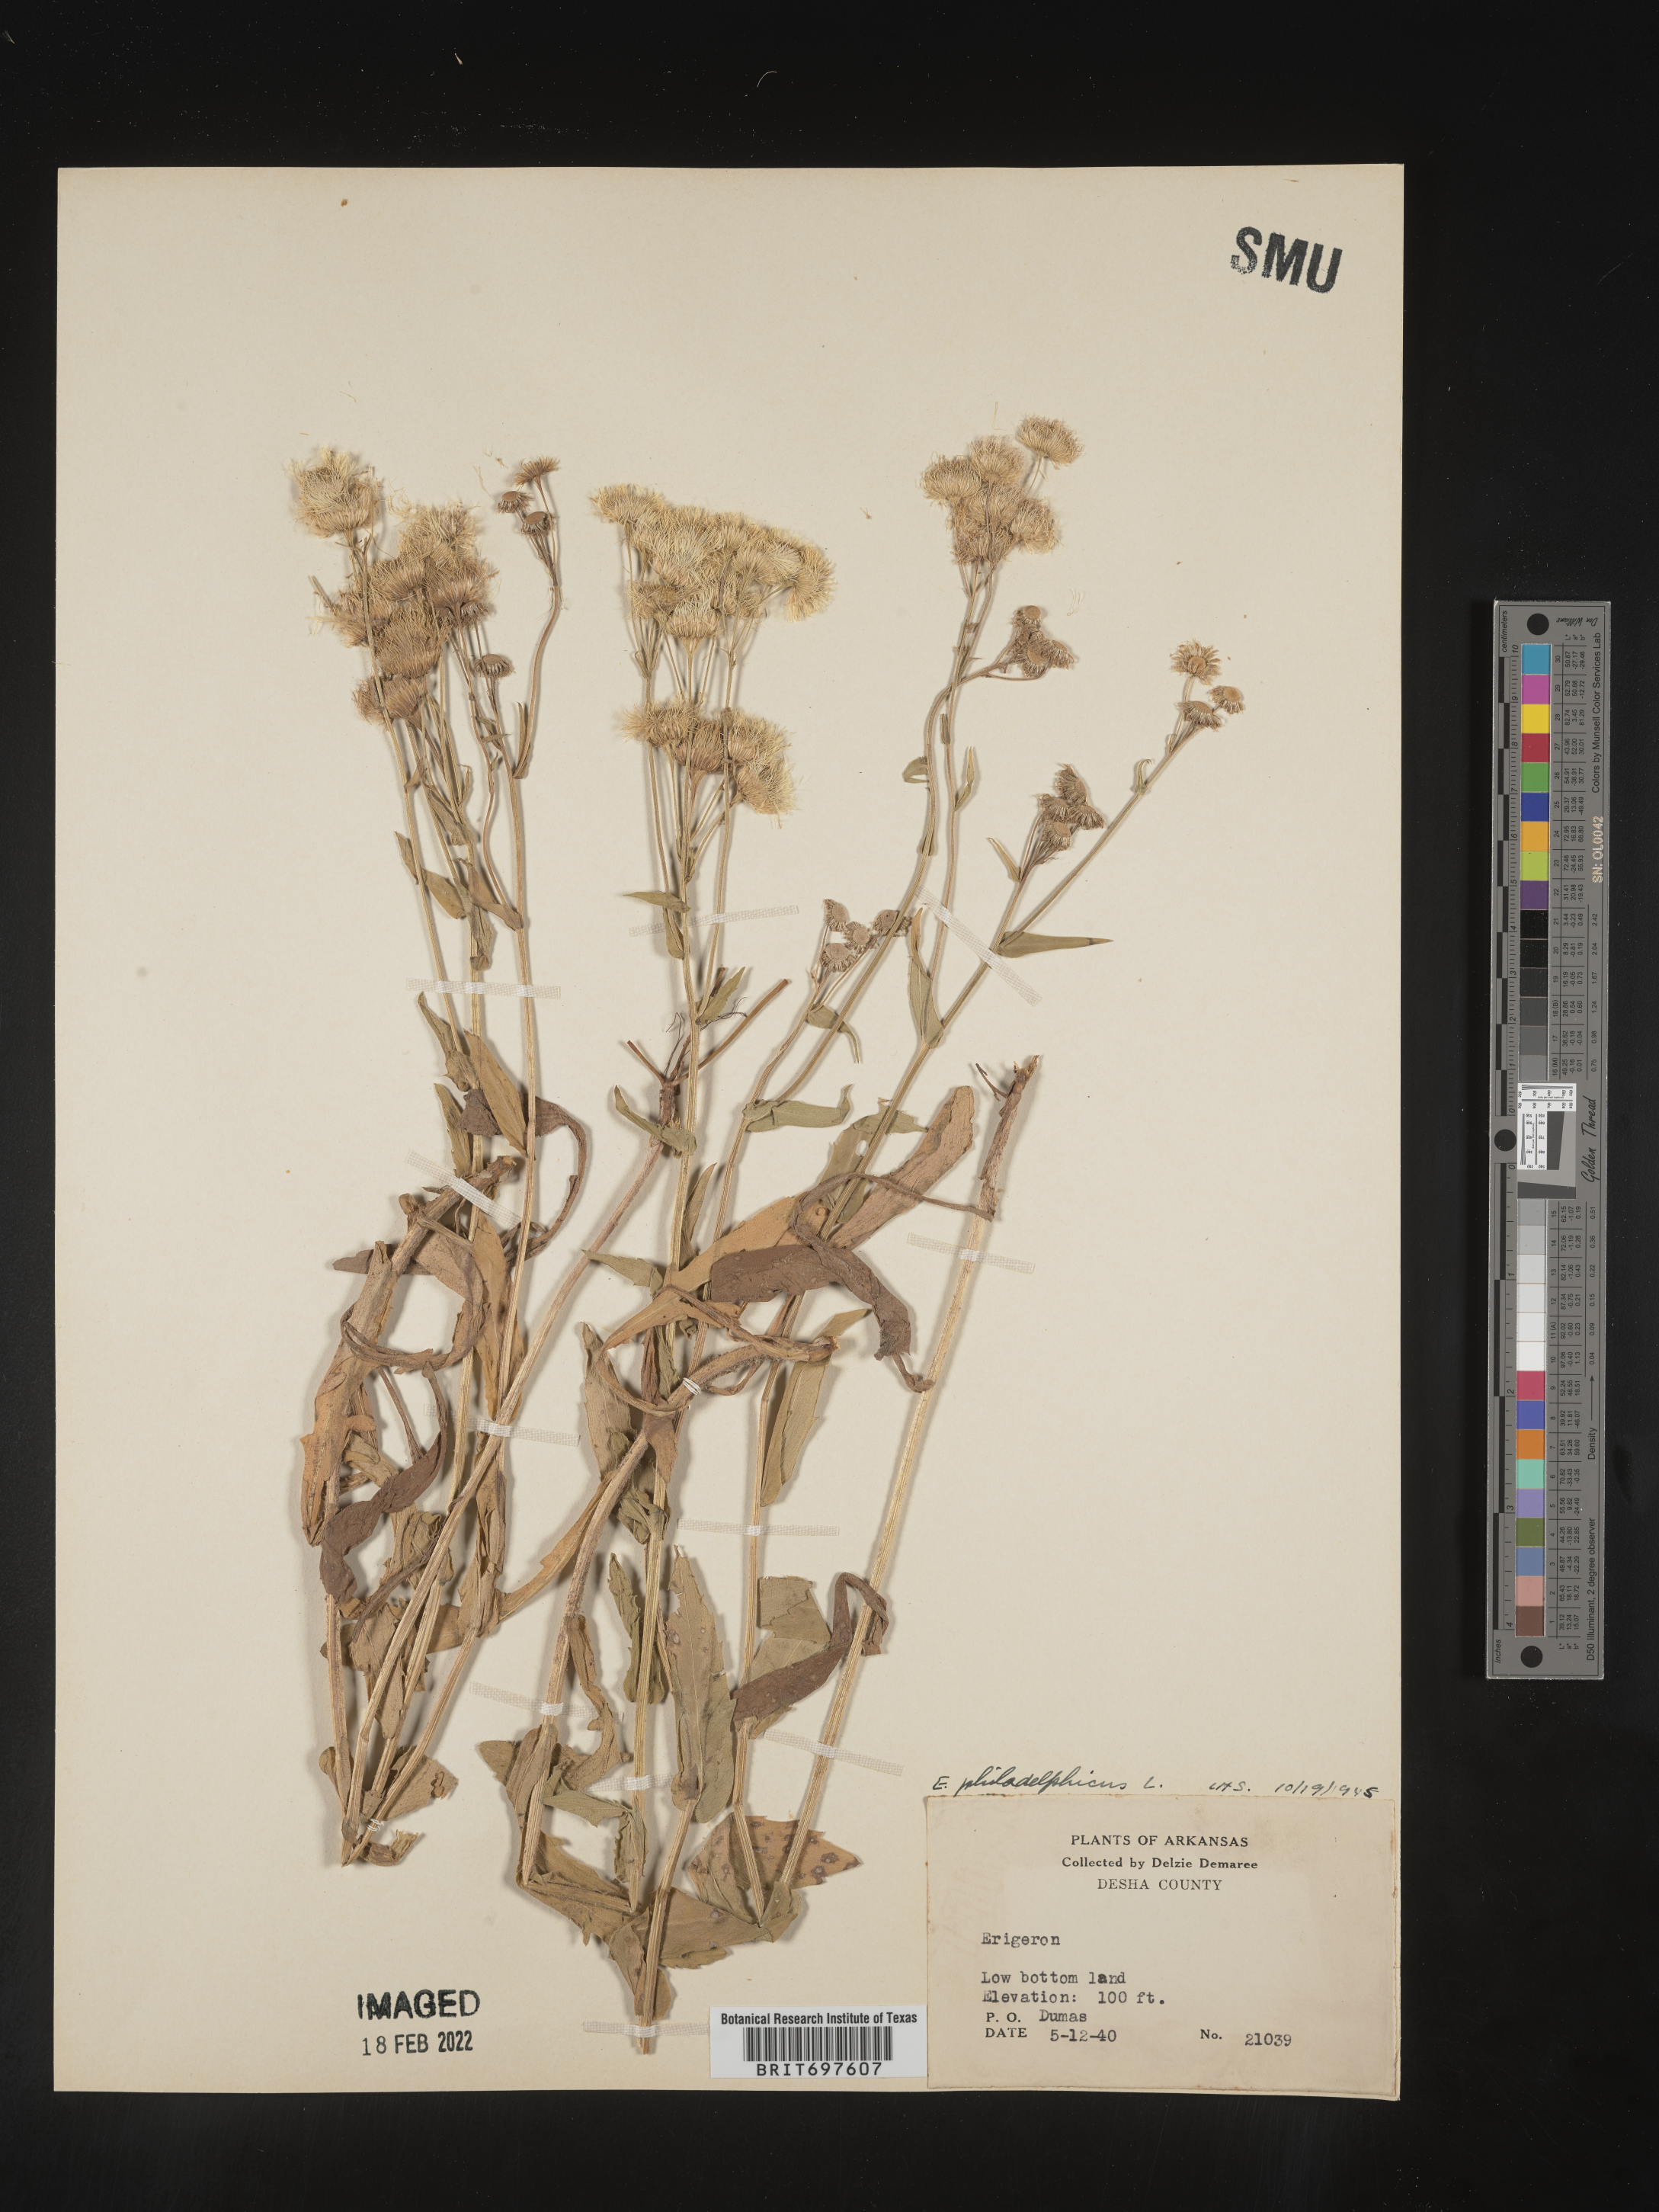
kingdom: Plantae
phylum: Tracheophyta
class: Magnoliopsida
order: Asterales
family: Asteraceae
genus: Erigeron
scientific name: Erigeron philadelphicus
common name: Robin's-plantain
